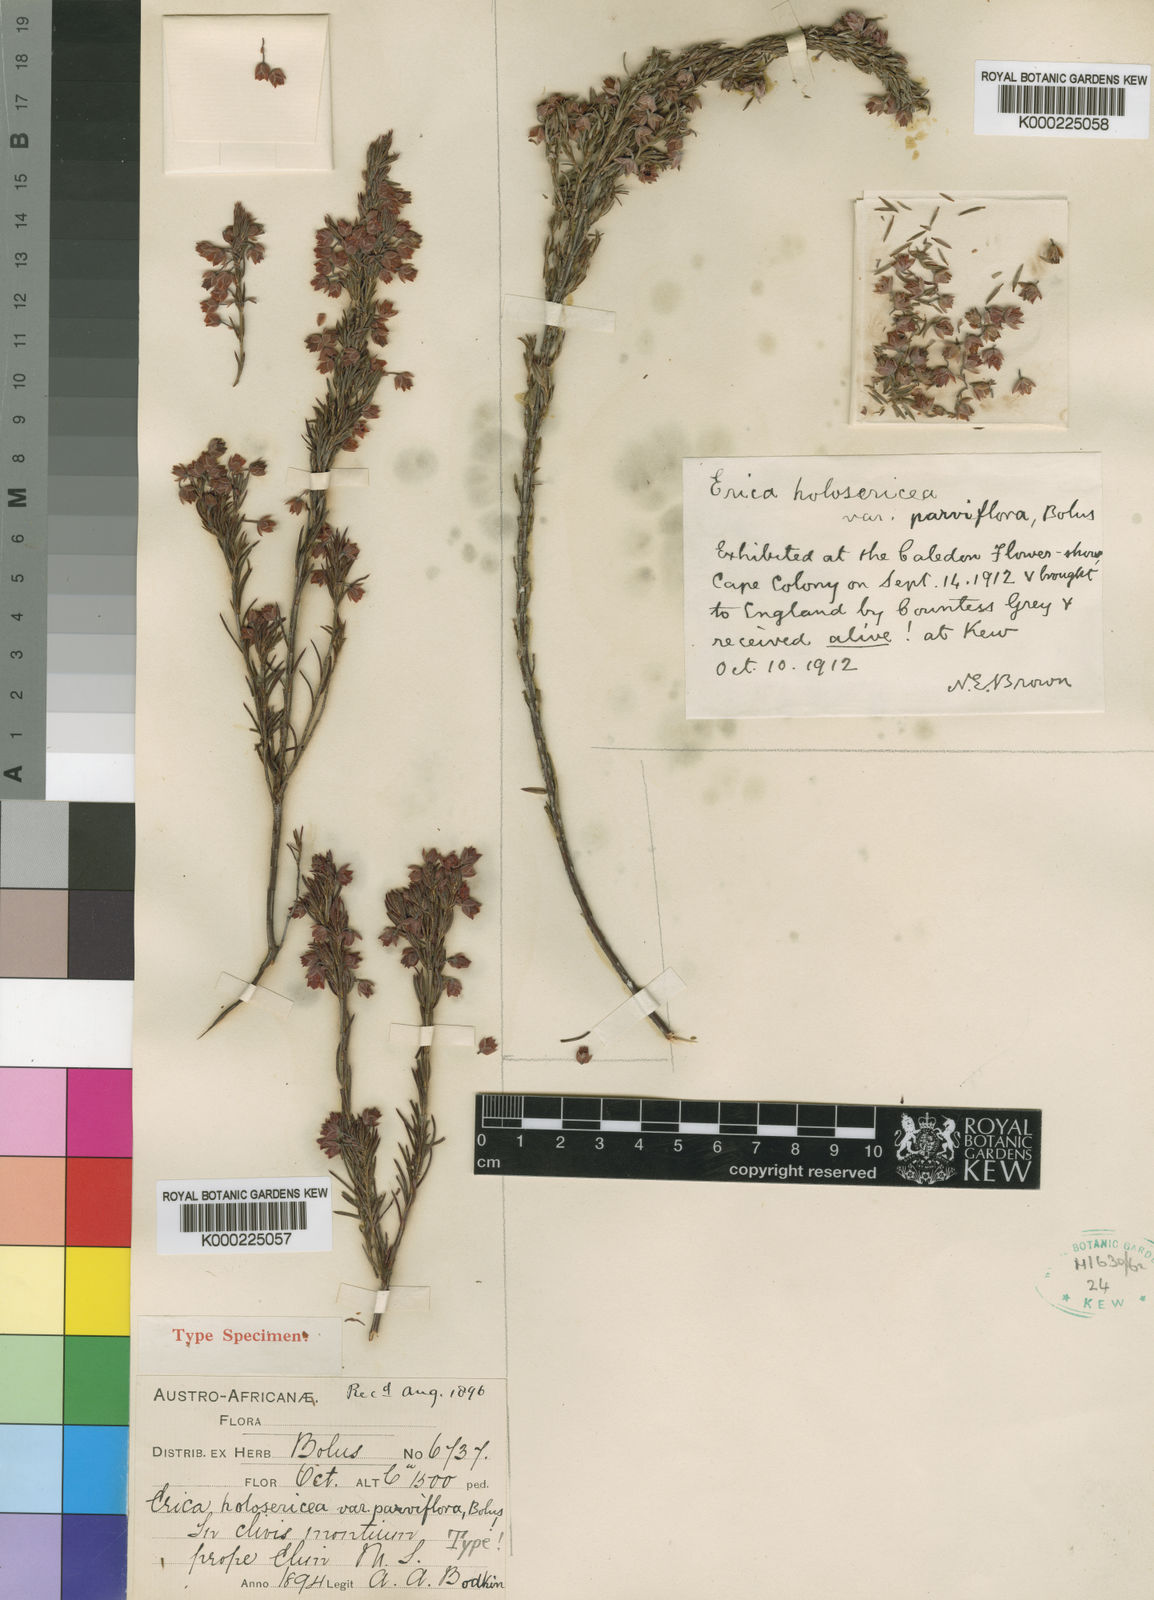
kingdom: Plantae
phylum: Tracheophyta
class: Magnoliopsida
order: Ericales
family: Ericaceae
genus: Erica
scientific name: Erica holosericea
